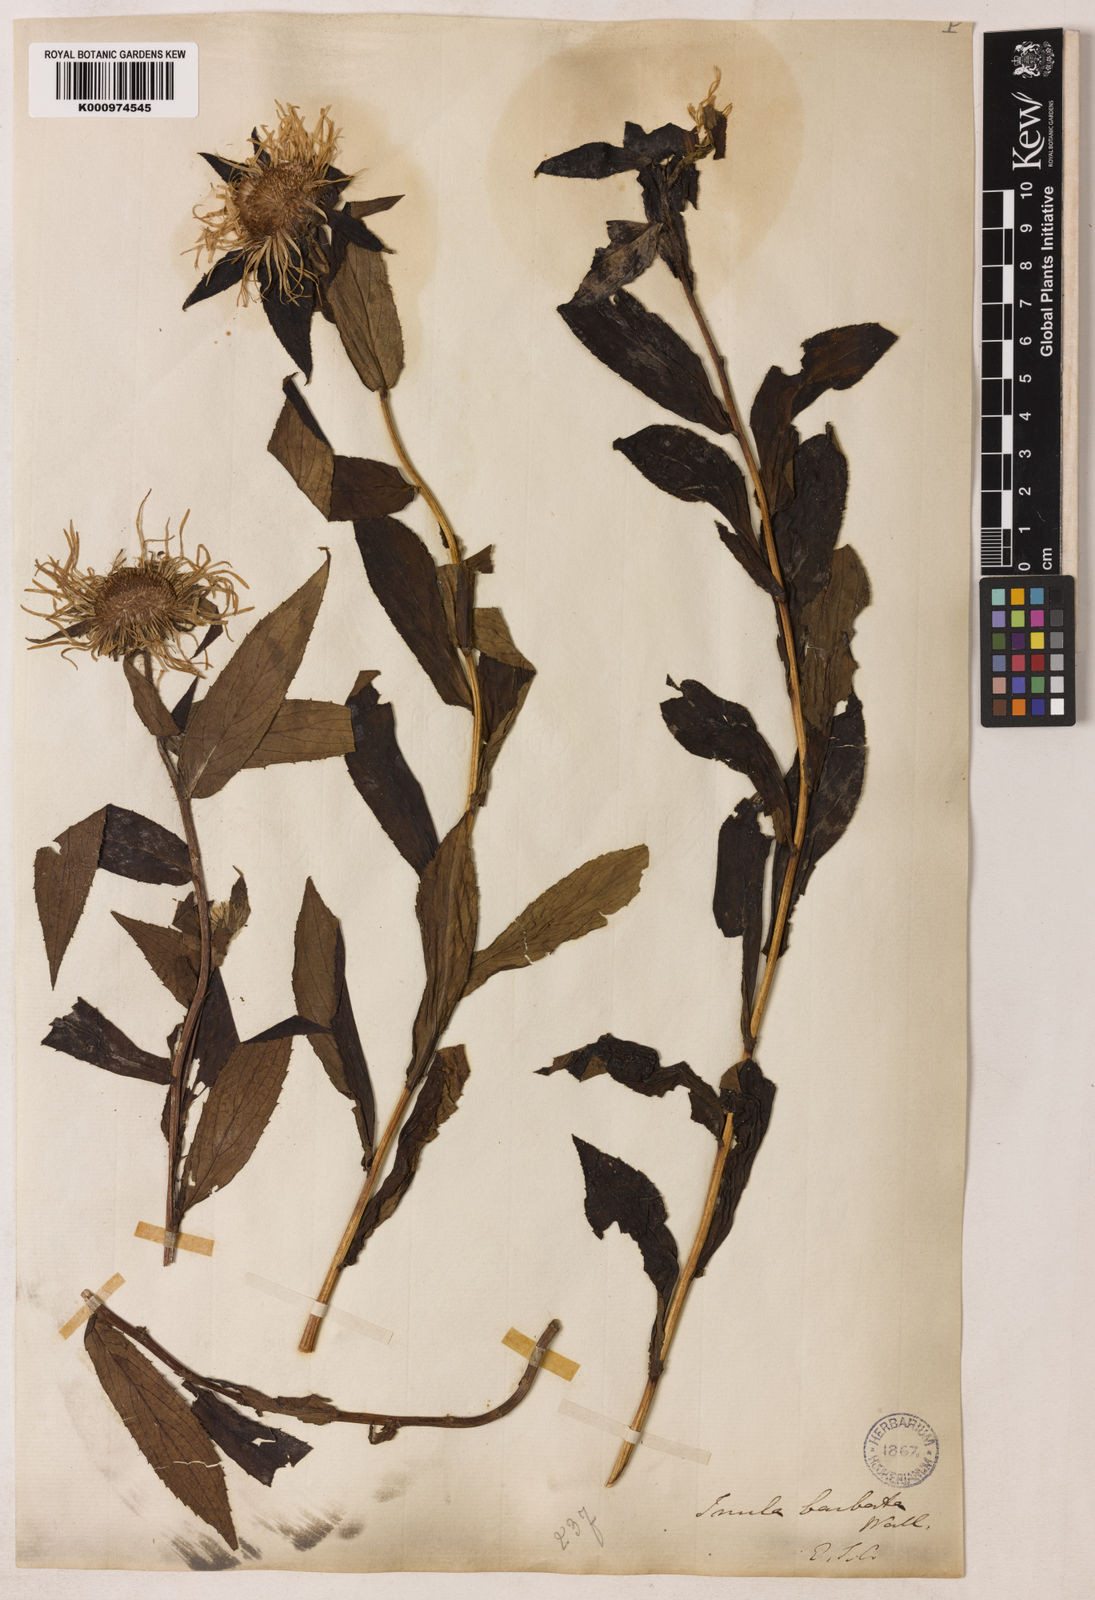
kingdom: Plantae
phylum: Tracheophyta
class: Magnoliopsida
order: Asterales
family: Asteraceae
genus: Inula
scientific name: Inula grandiflora
